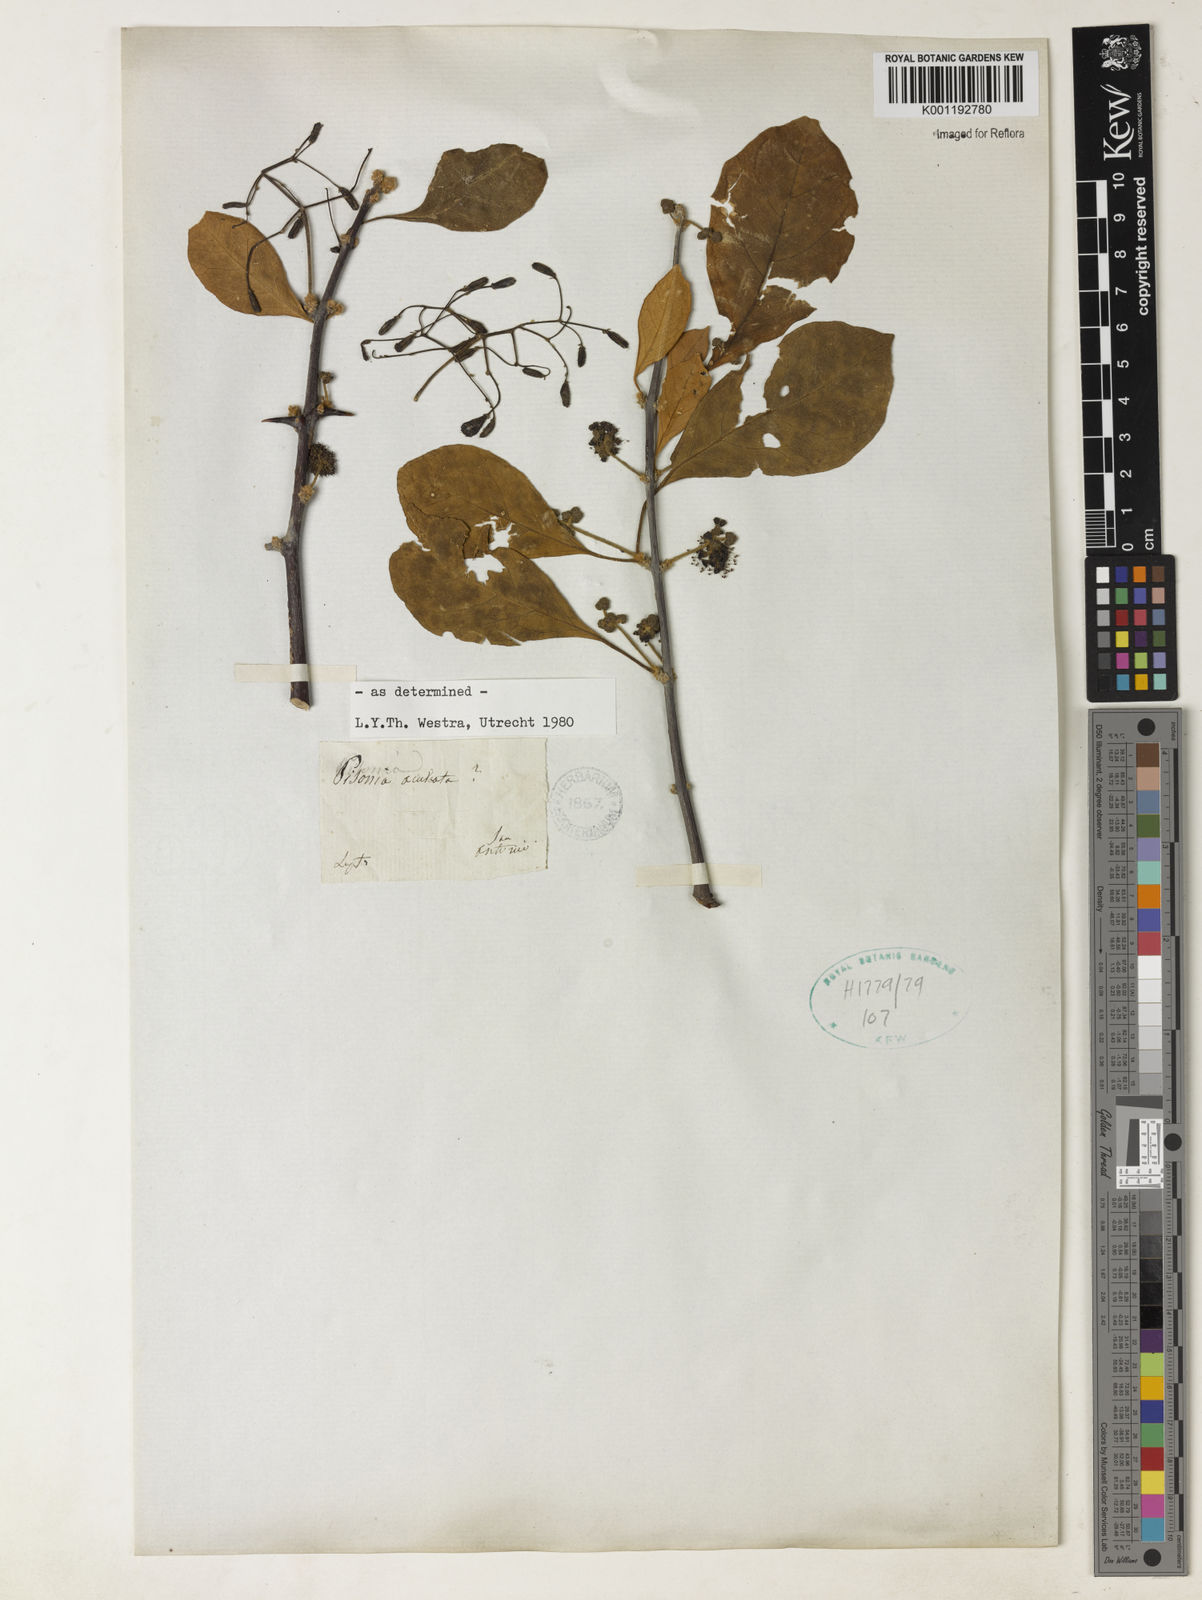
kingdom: Plantae
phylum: Tracheophyta
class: Magnoliopsida
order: Caryophyllales
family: Nyctaginaceae
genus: Pisonia
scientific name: Pisonia aculeata
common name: Cockspur vine
